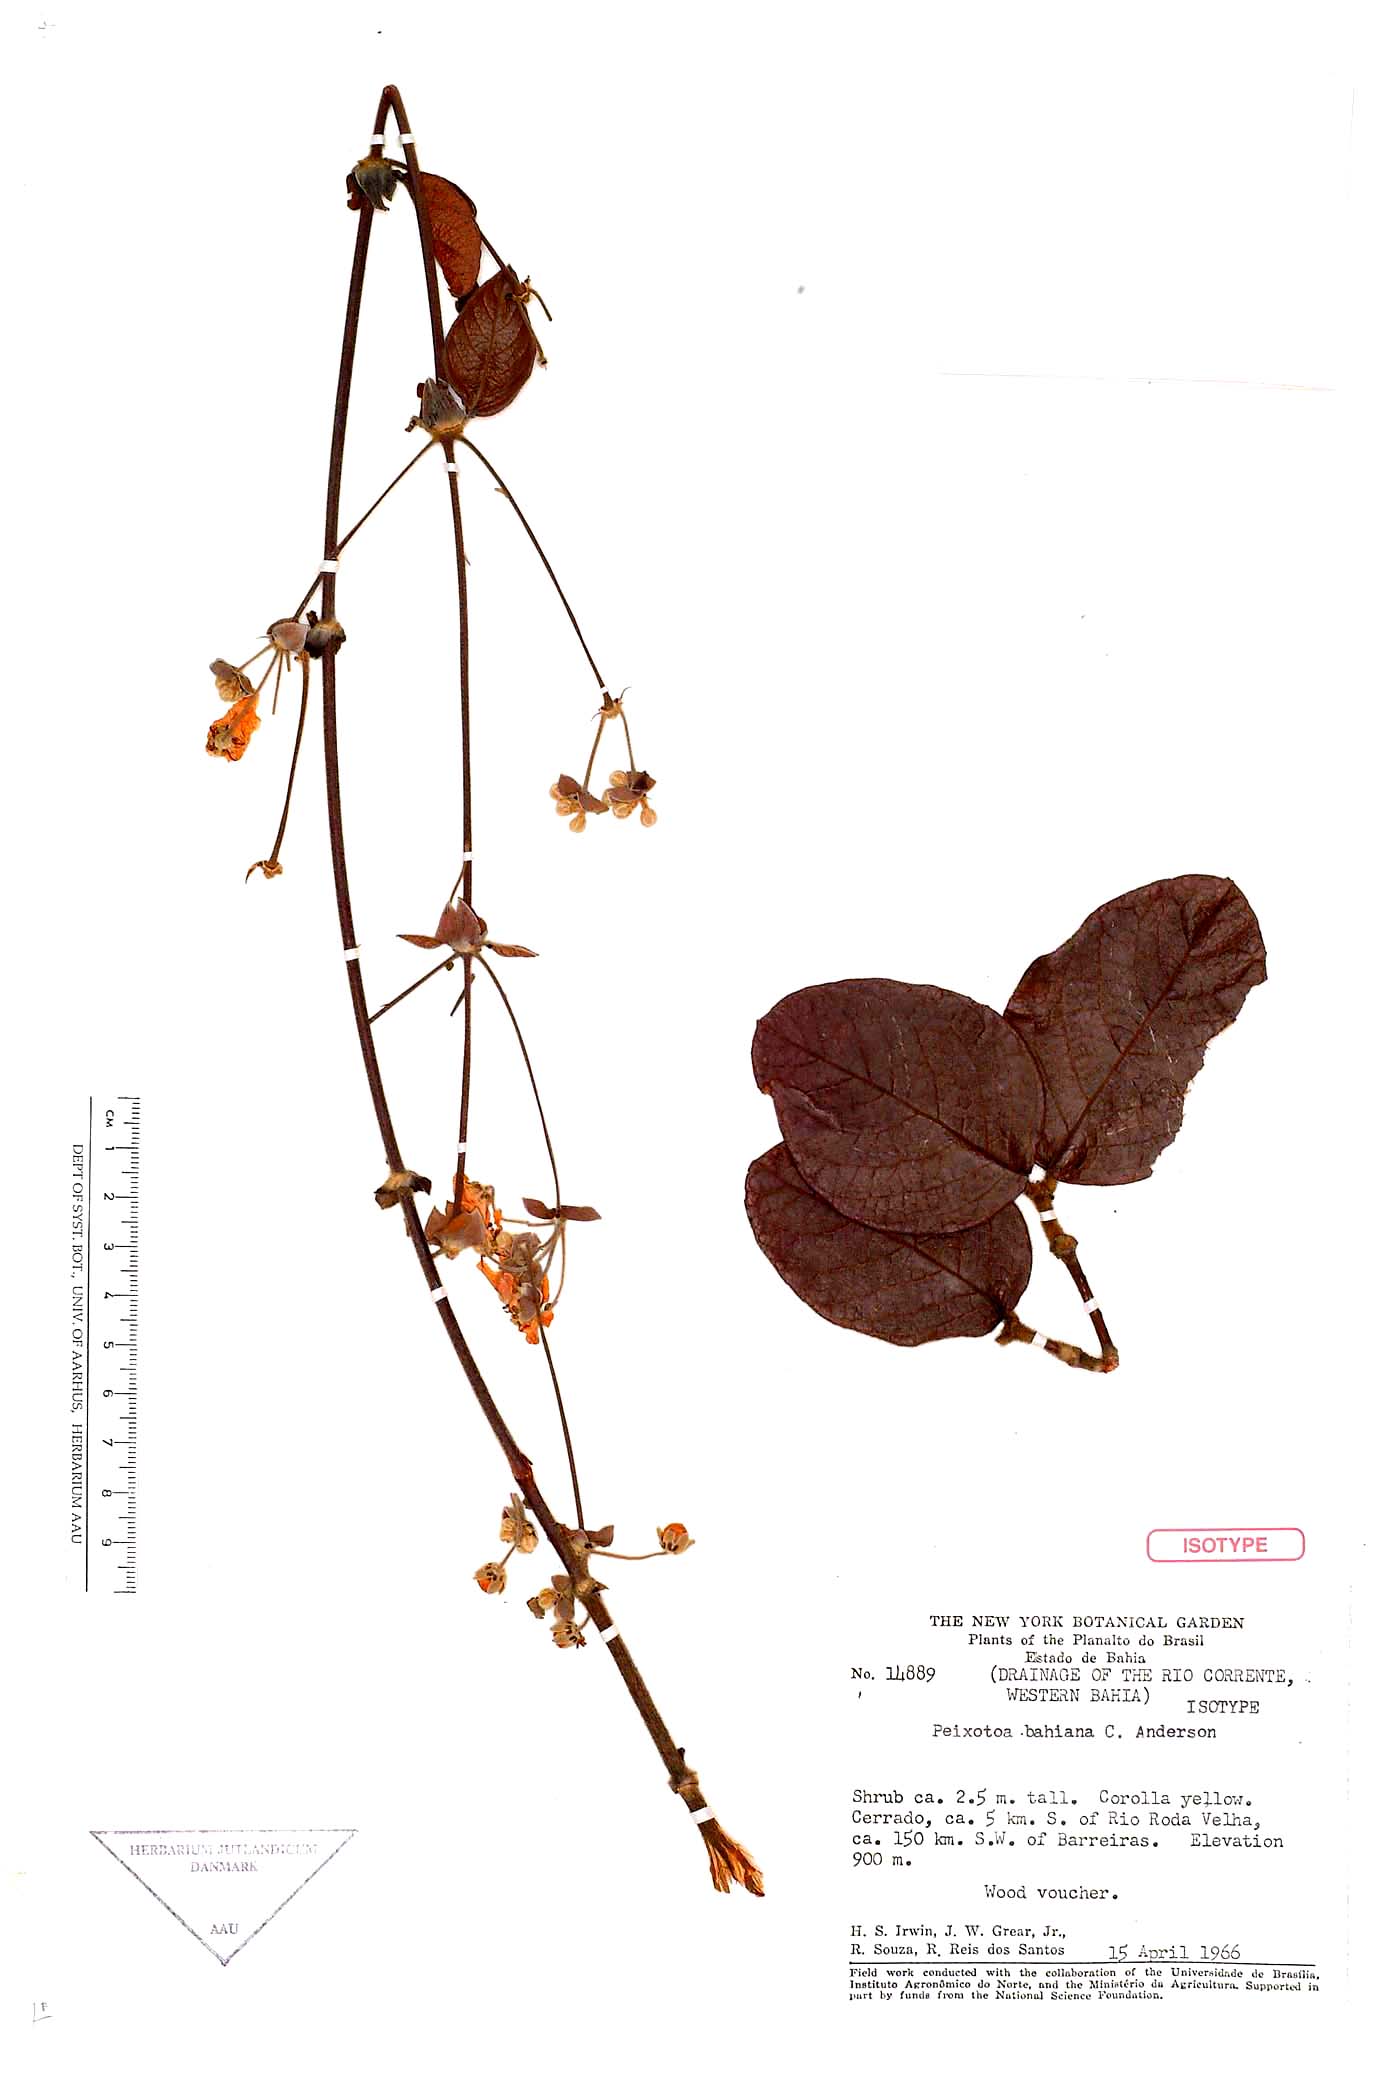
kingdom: Plantae
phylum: Tracheophyta
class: Magnoliopsida
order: Malpighiales
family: Malpighiaceae
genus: Peixotoa
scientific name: Peixotoa bahiana
